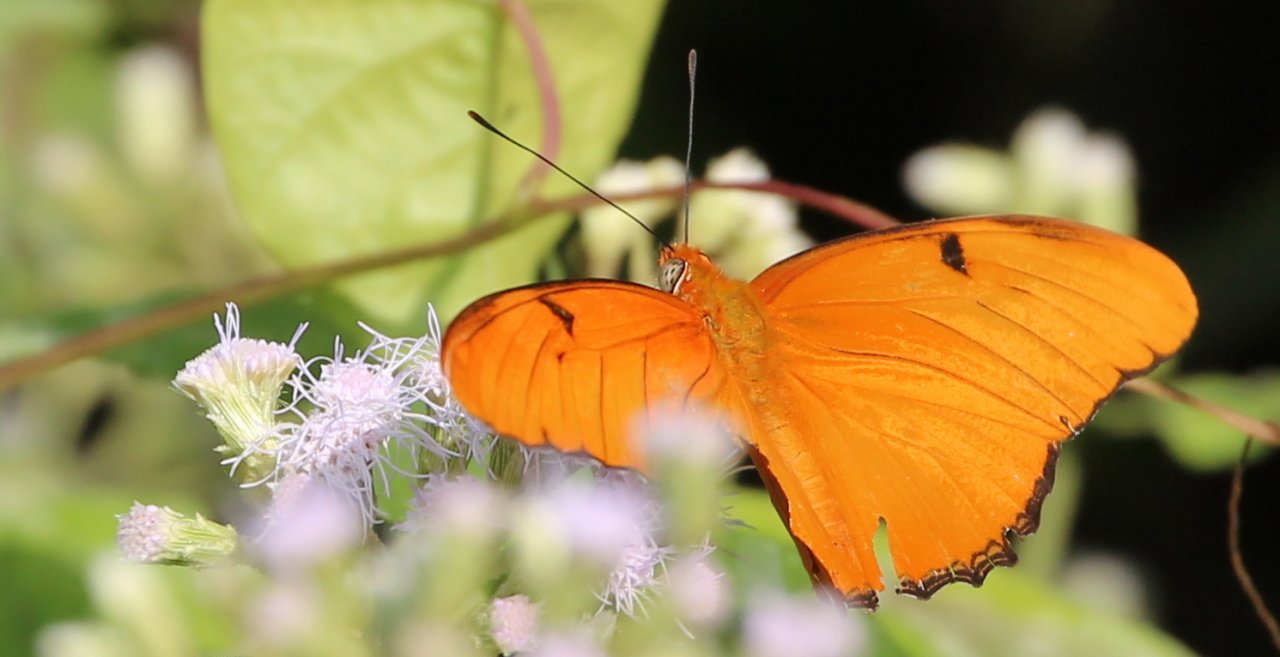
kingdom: Animalia
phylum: Arthropoda
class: Insecta
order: Lepidoptera
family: Nymphalidae
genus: Dryas
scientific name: Dryas iulia
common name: Julia
